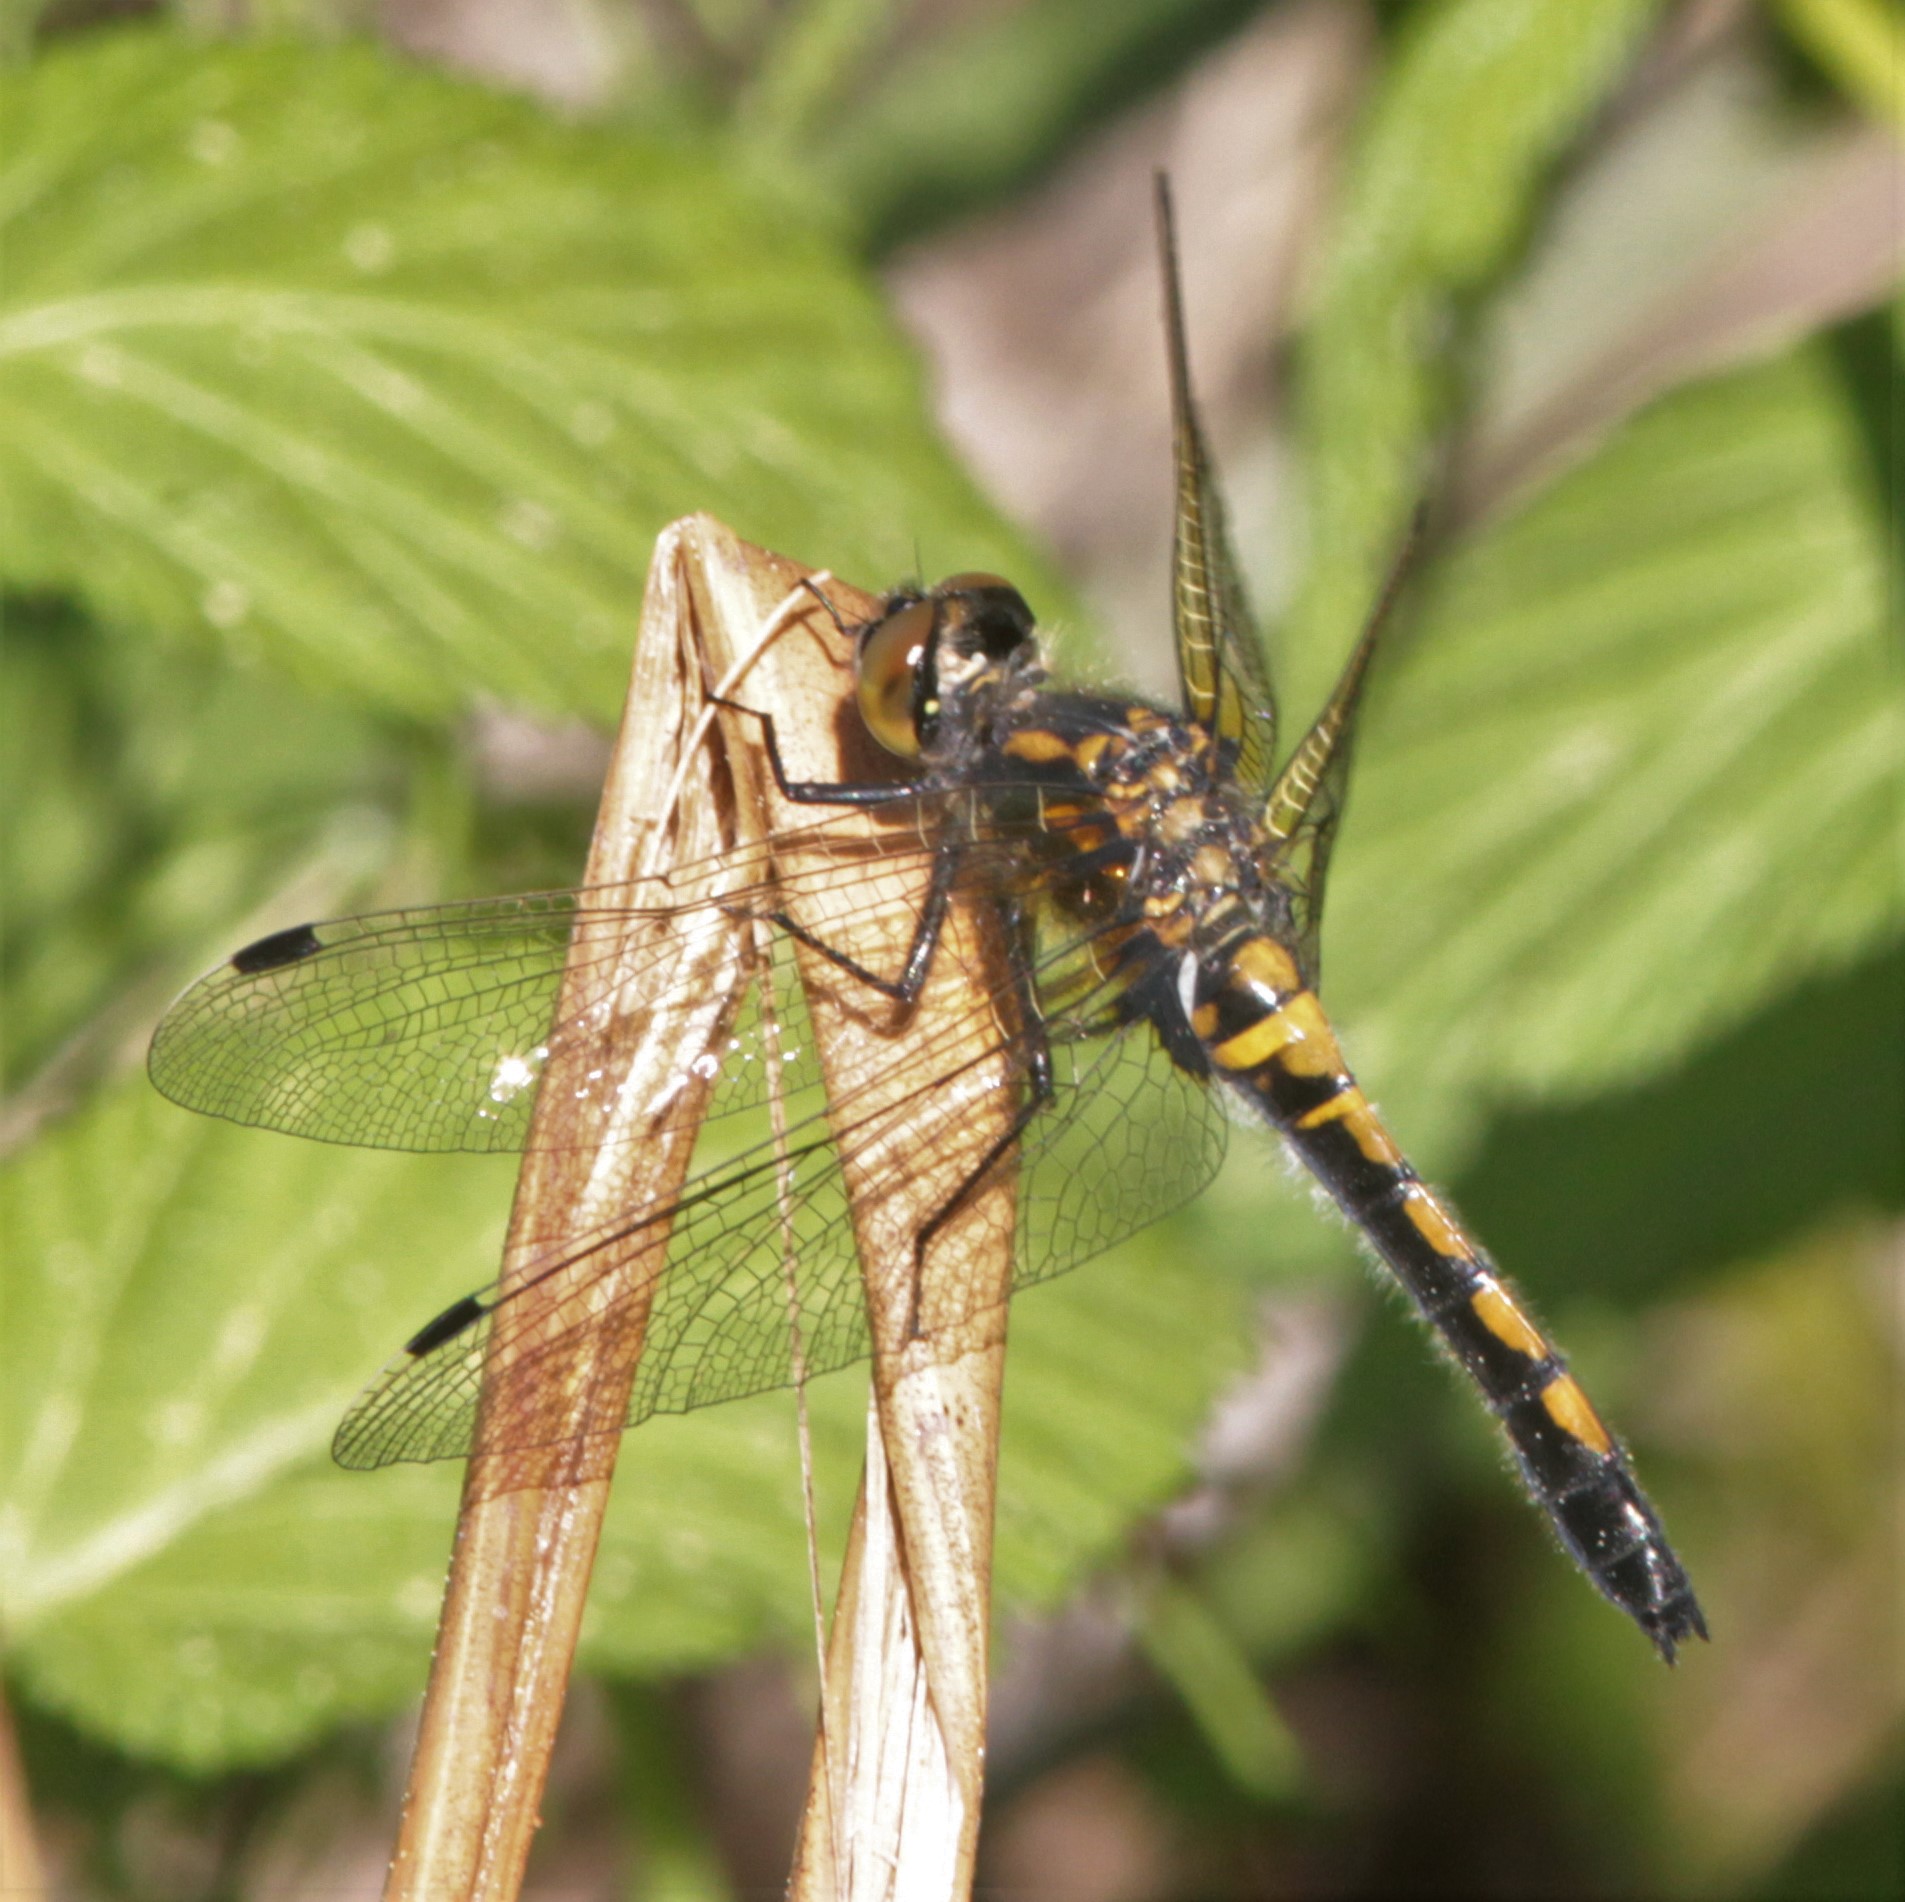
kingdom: Animalia
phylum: Arthropoda
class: Insecta
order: Odonata
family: Libellulidae
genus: Leucorrhinia
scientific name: Leucorrhinia rubicunda
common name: Ruby whiteface
